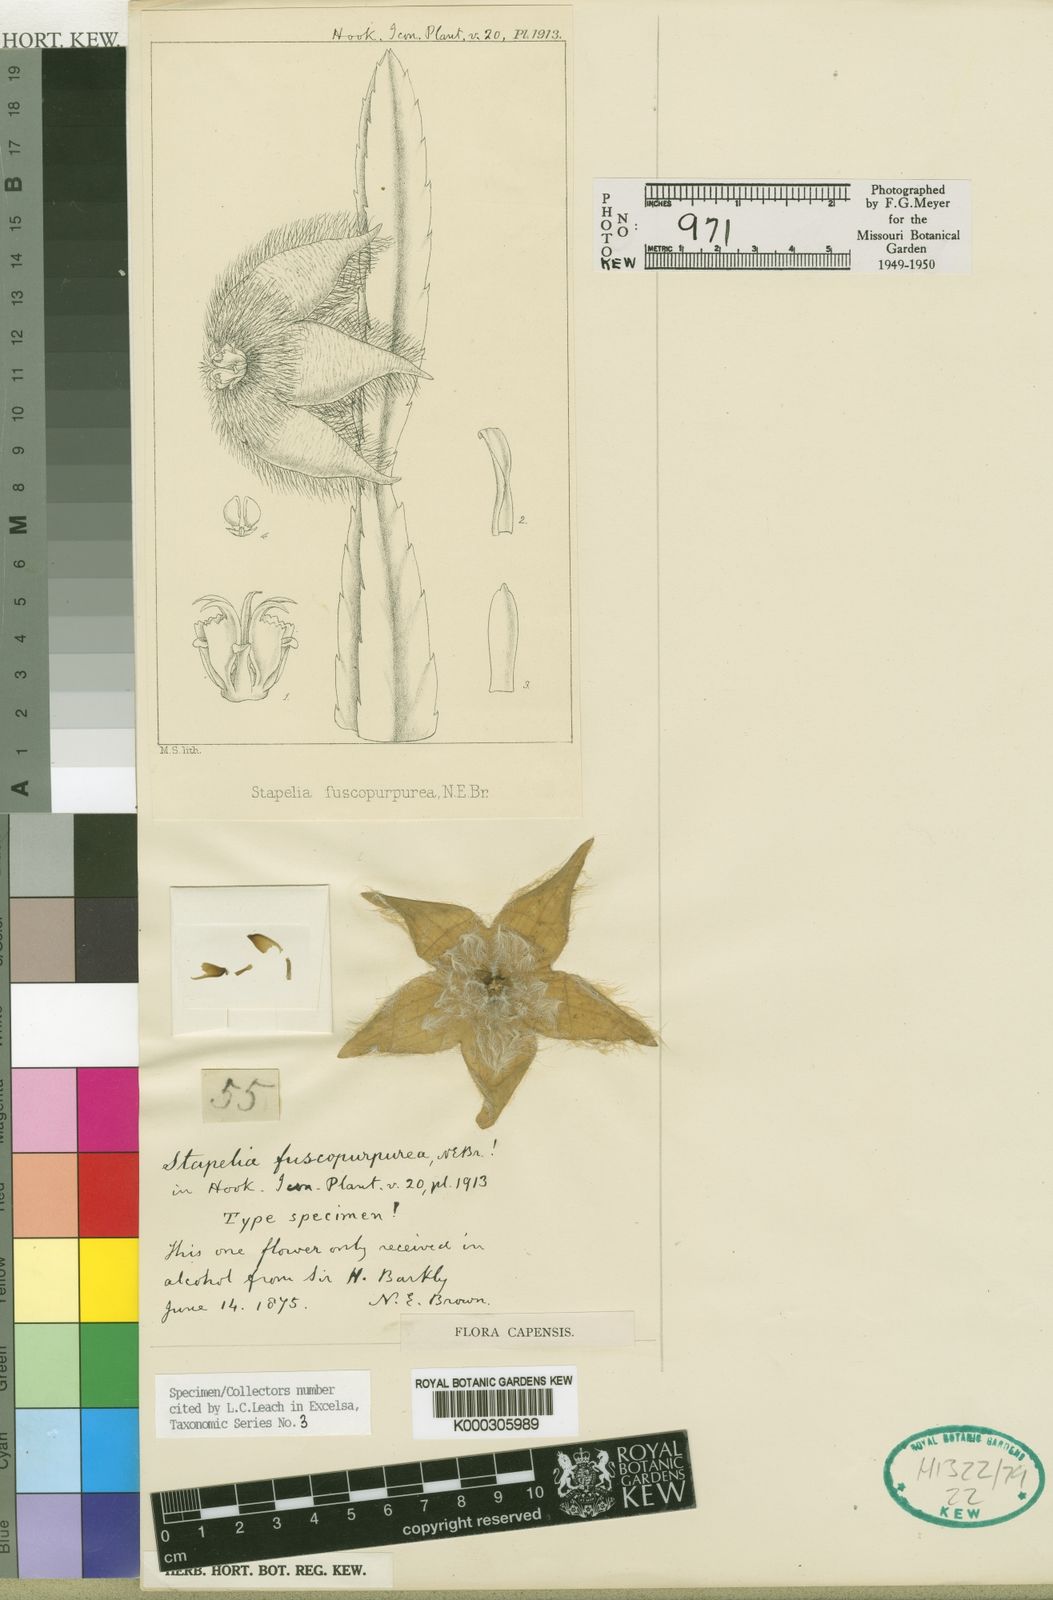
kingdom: Plantae
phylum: Tracheophyta
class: Magnoliopsida
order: Gentianales
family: Apocynaceae
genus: Stapelia
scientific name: Stapelia fuscopurpurea
